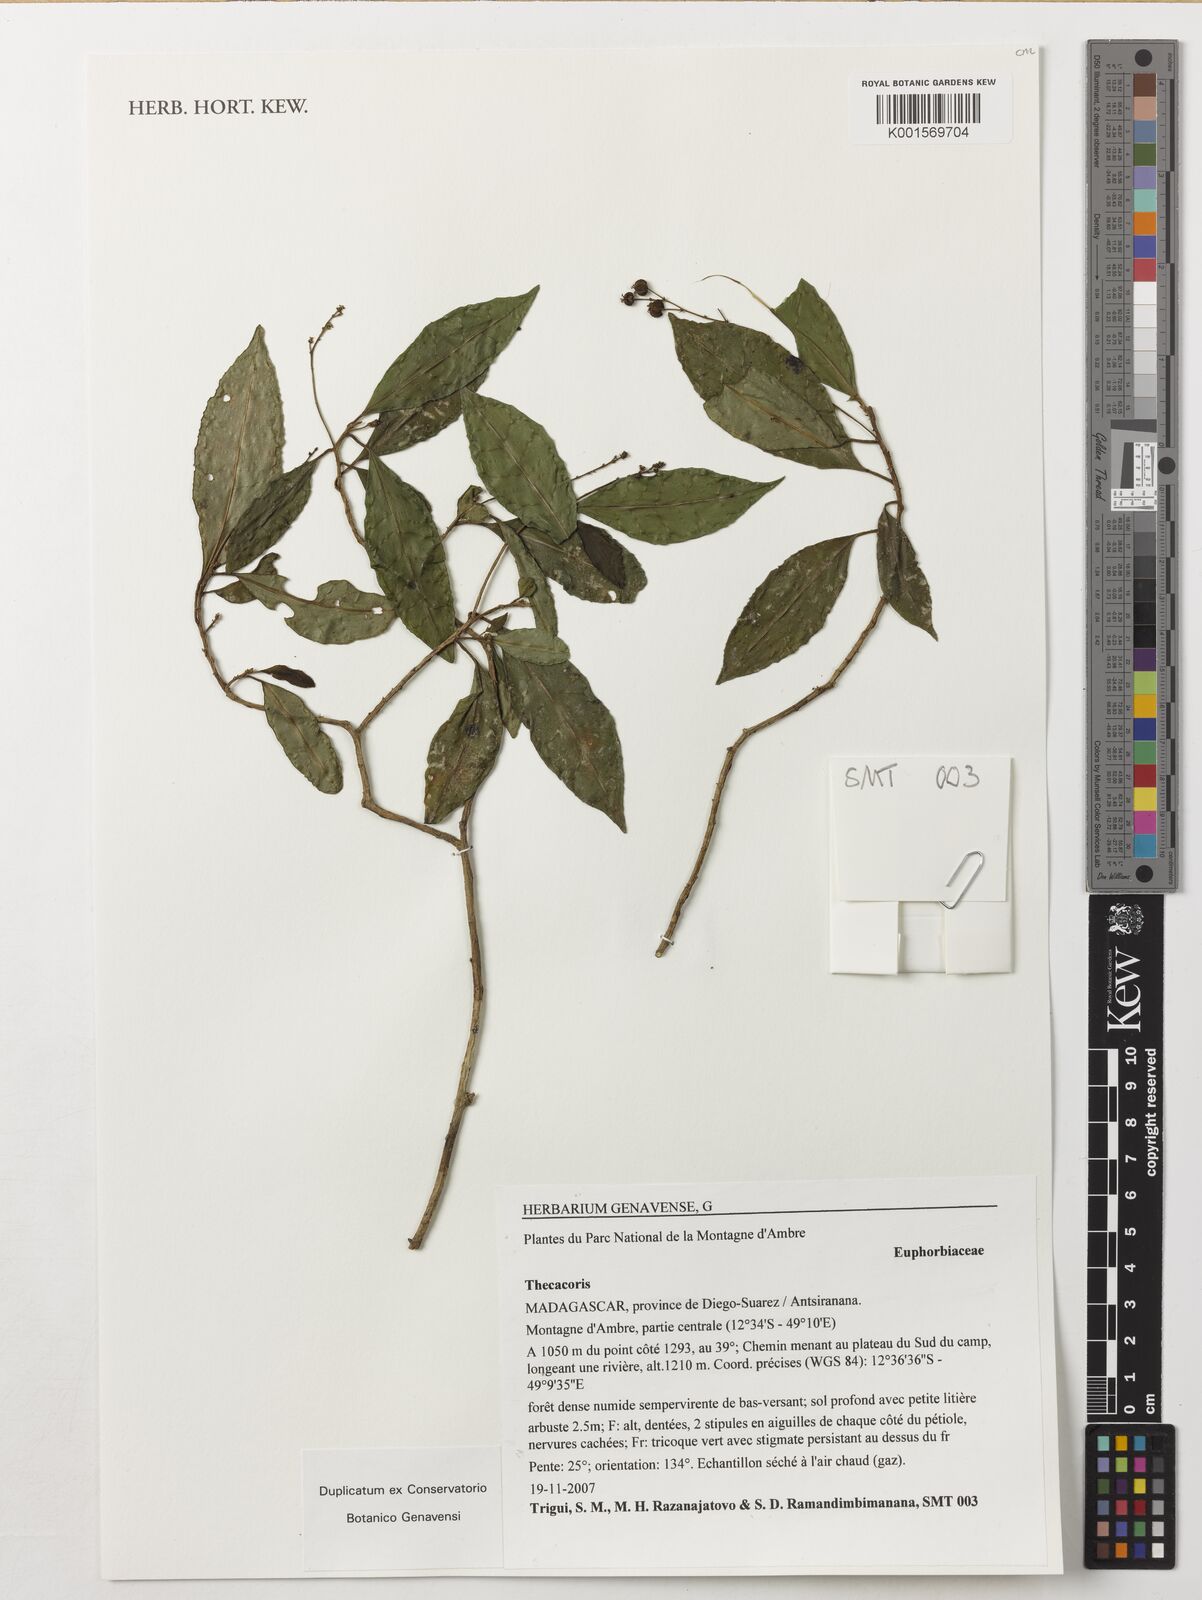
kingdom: Plantae
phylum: Tracheophyta
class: Magnoliopsida
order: Malpighiales
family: Phyllanthaceae
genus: Thecacoris
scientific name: Thecacoris
